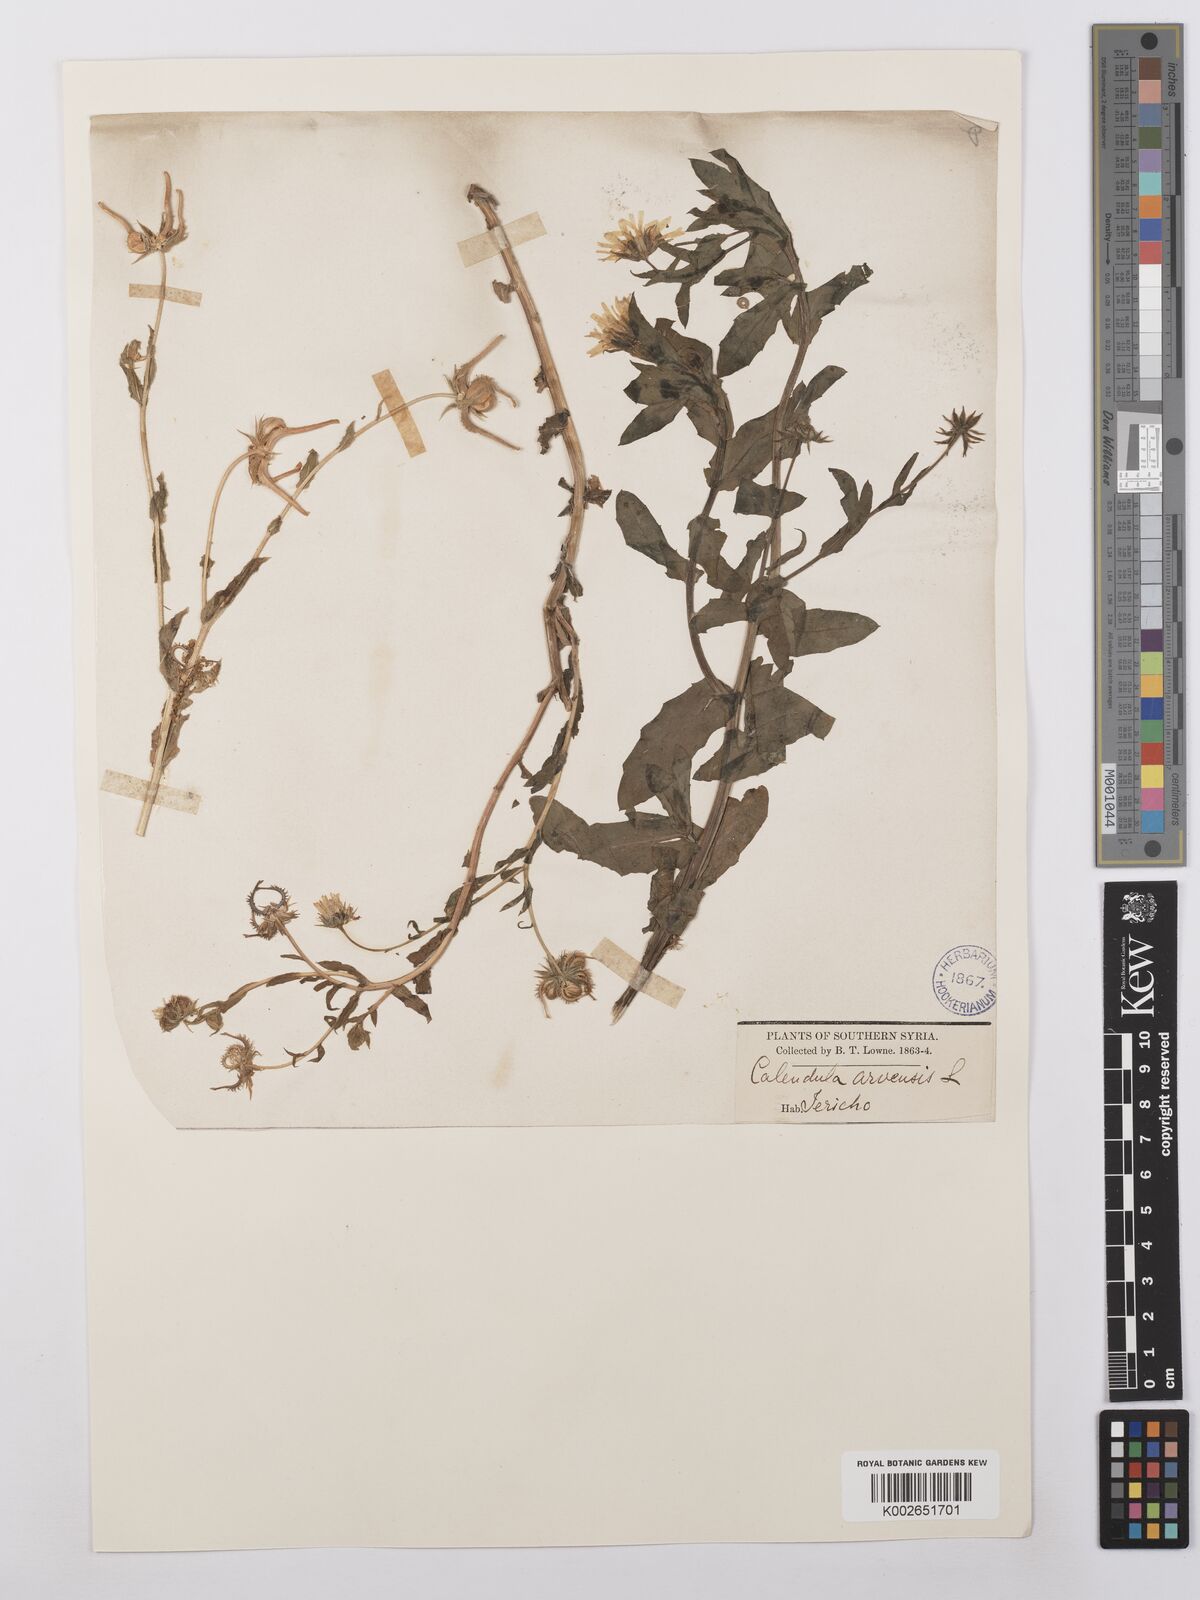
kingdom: Plantae
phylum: Tracheophyta
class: Magnoliopsida
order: Asterales
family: Asteraceae
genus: Calendula
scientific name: Calendula palaestina
